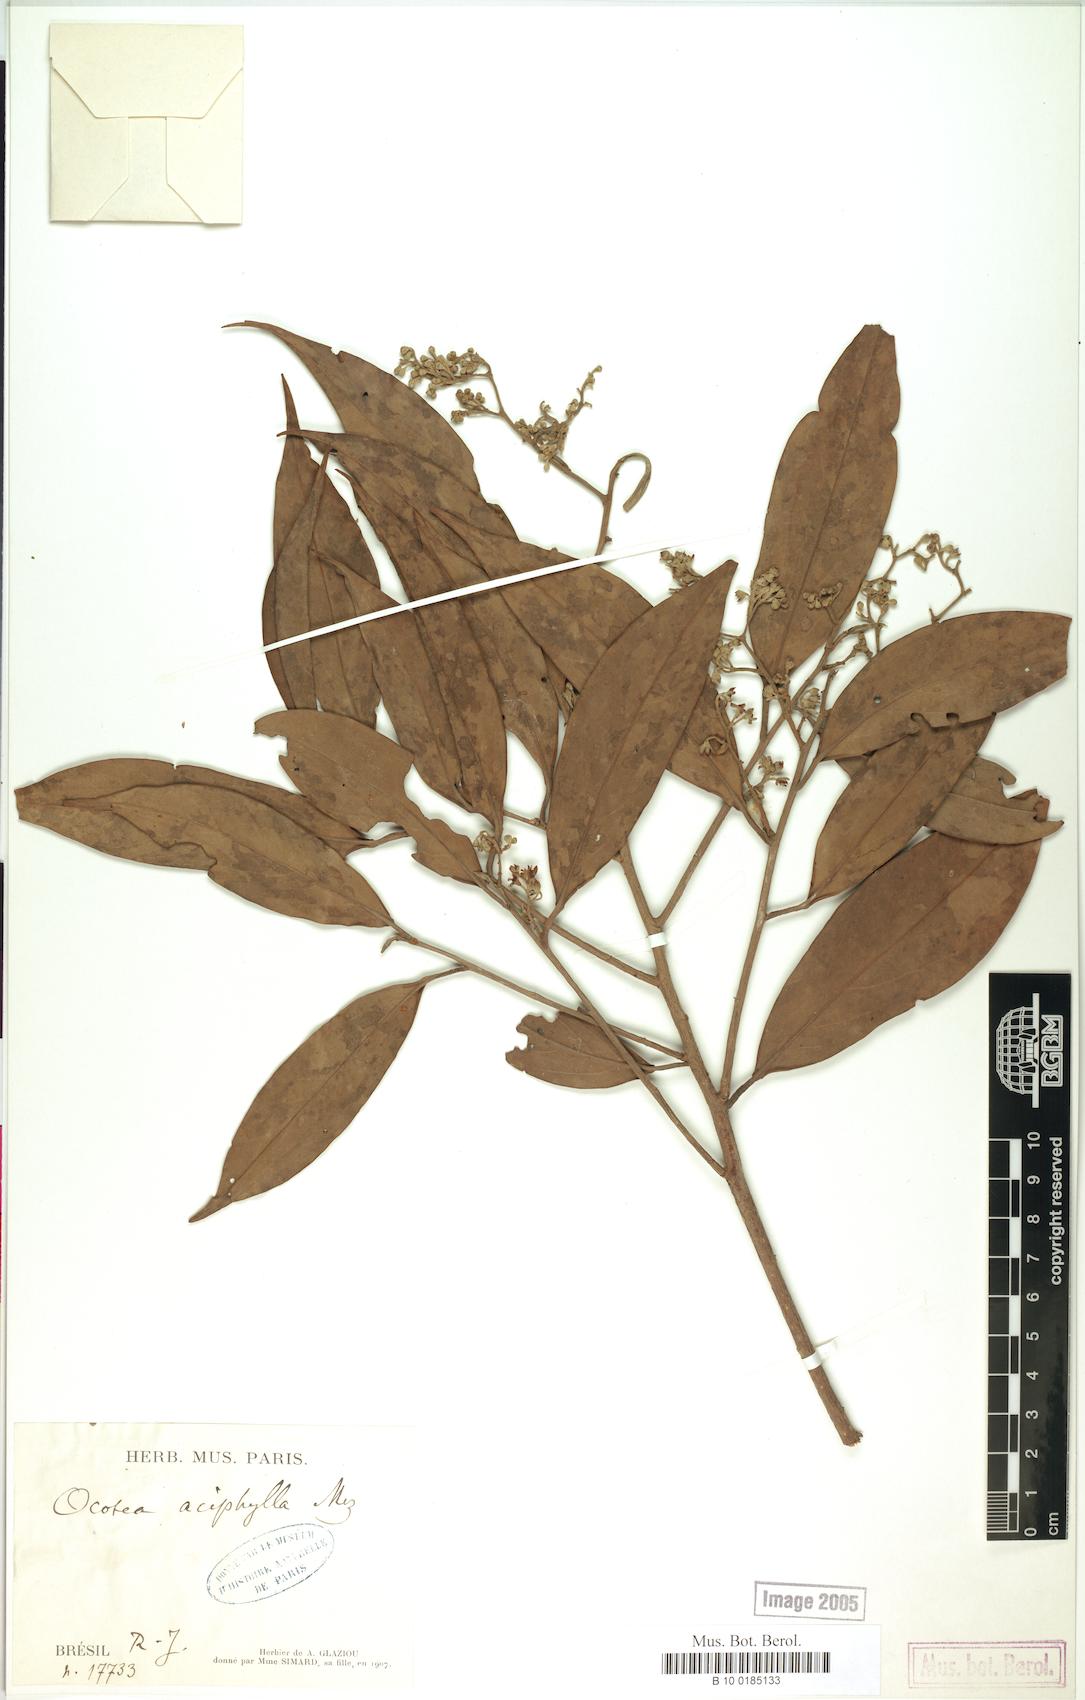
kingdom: Plantae
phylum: Tracheophyta
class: Magnoliopsida
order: Laurales
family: Lauraceae
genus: Ocotea
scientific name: Ocotea aciphylla
